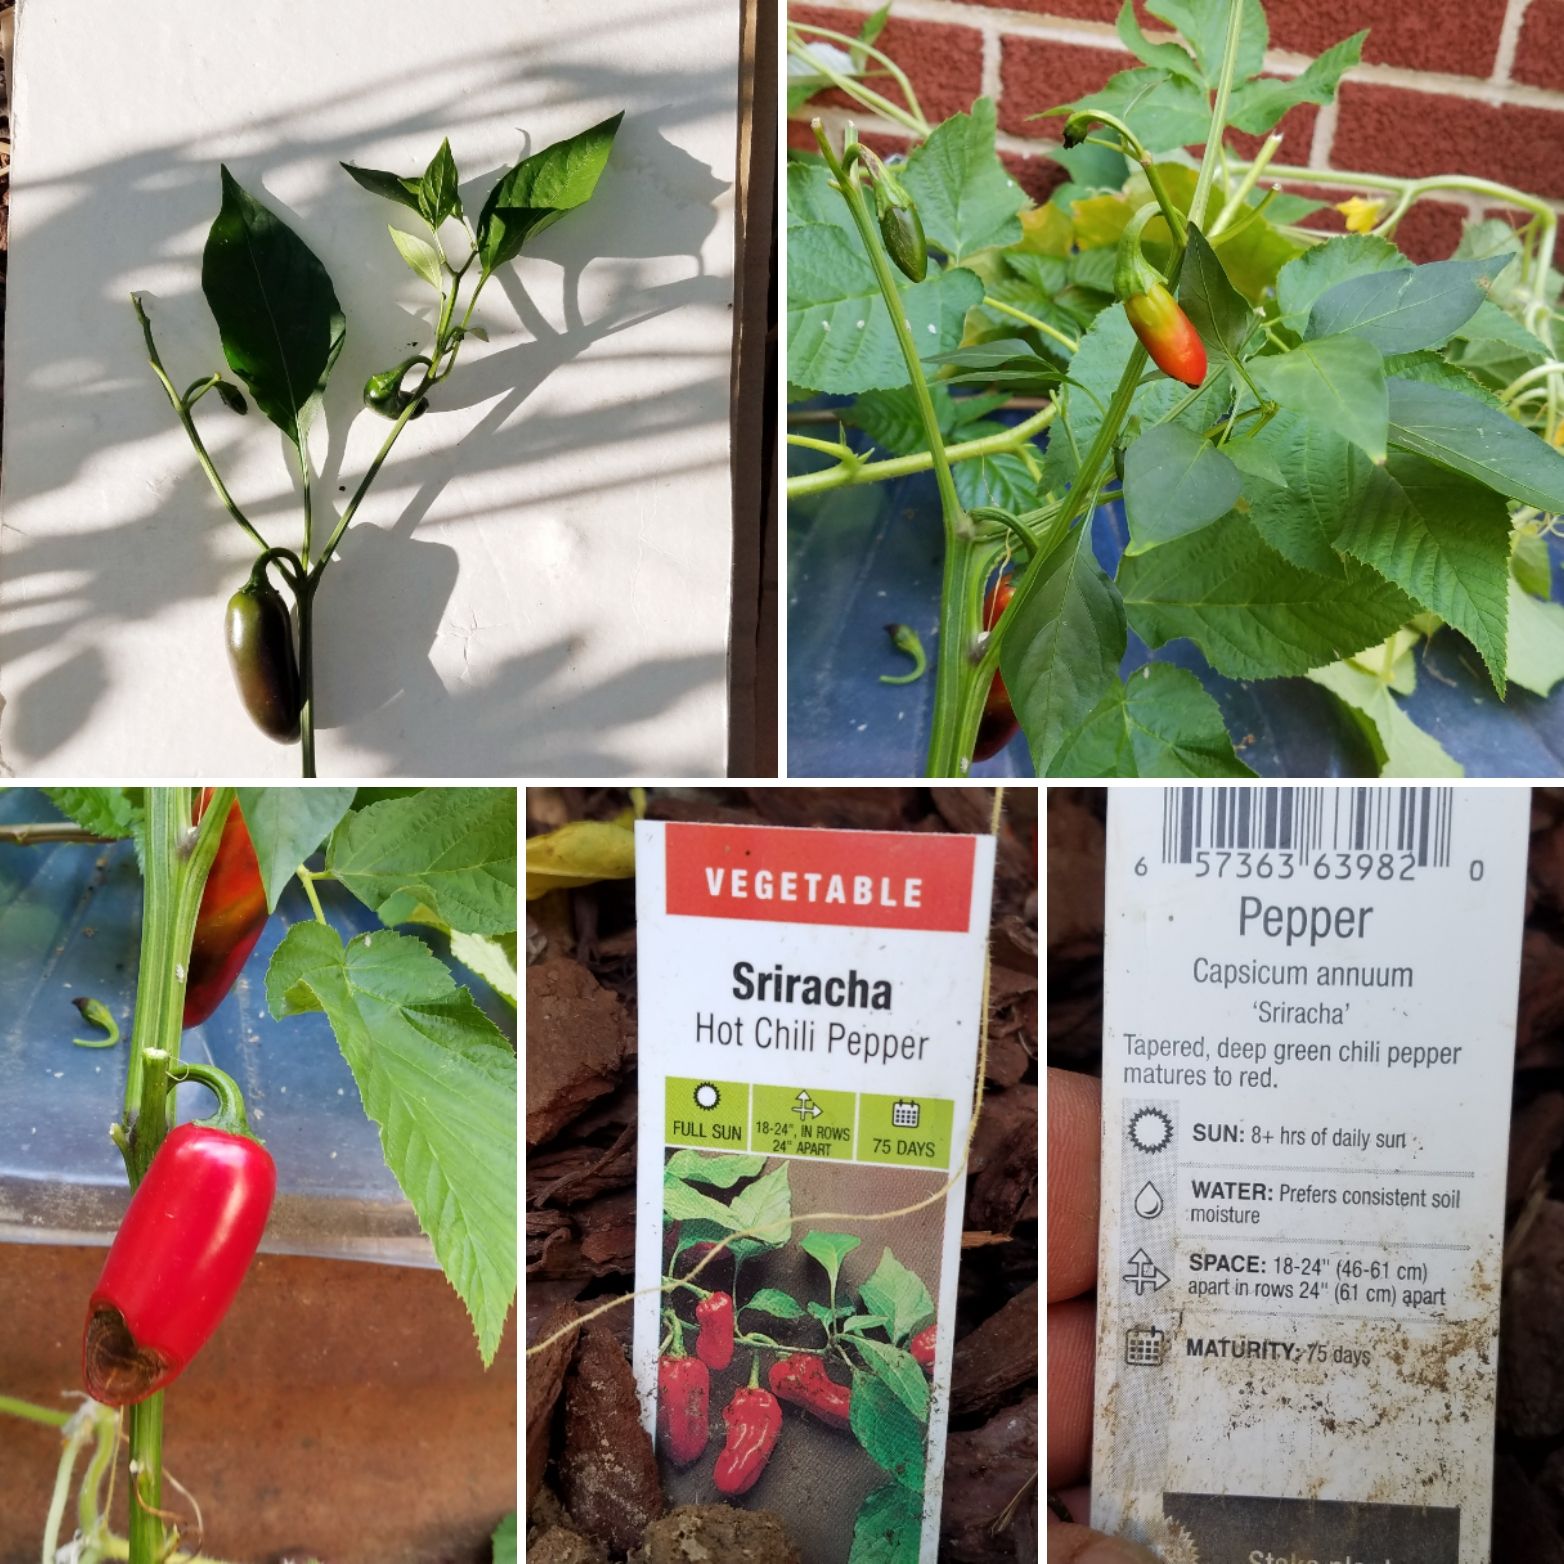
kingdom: Plantae
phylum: Tracheophyta
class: Magnoliopsida
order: Solanales
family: Solanaceae
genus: Capsicum
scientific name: Capsicum annuum
